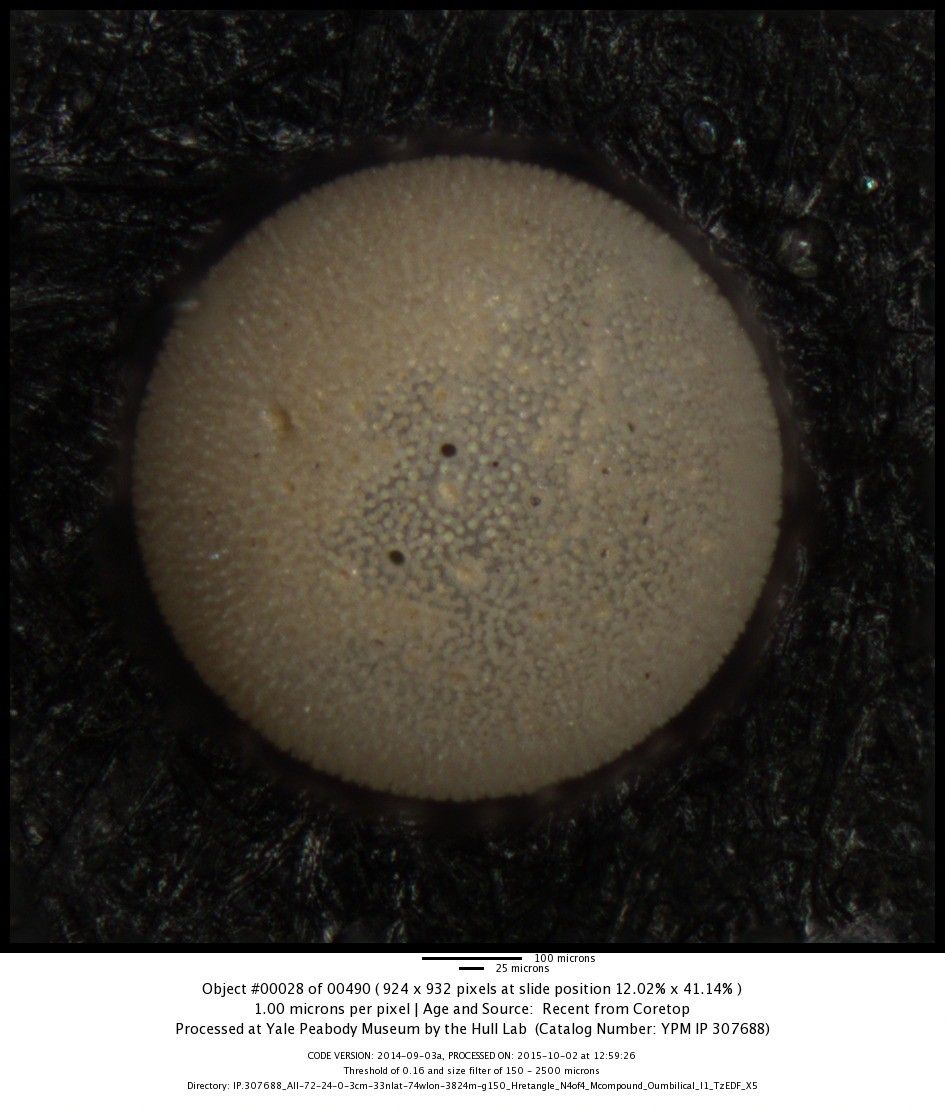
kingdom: Chromista
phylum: Foraminifera
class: Globothalamea
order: Rotaliida
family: Globigerinidae
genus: Orbulina
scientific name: Orbulina universa
